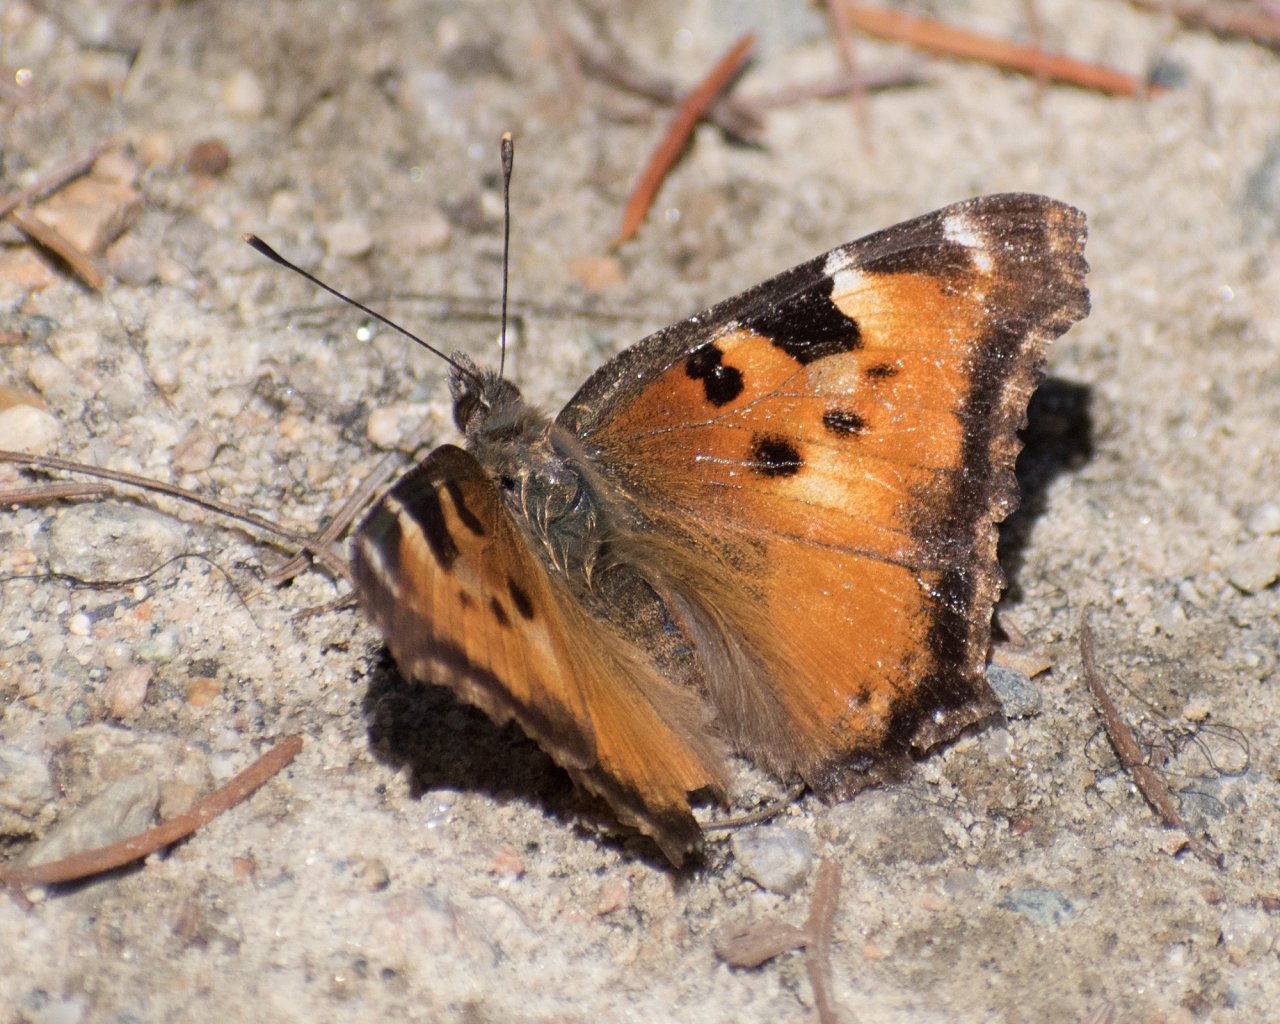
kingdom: Animalia
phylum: Arthropoda
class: Insecta
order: Lepidoptera
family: Nymphalidae
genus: Nymphalis
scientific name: Nymphalis californica
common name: California Tortoiseshell
